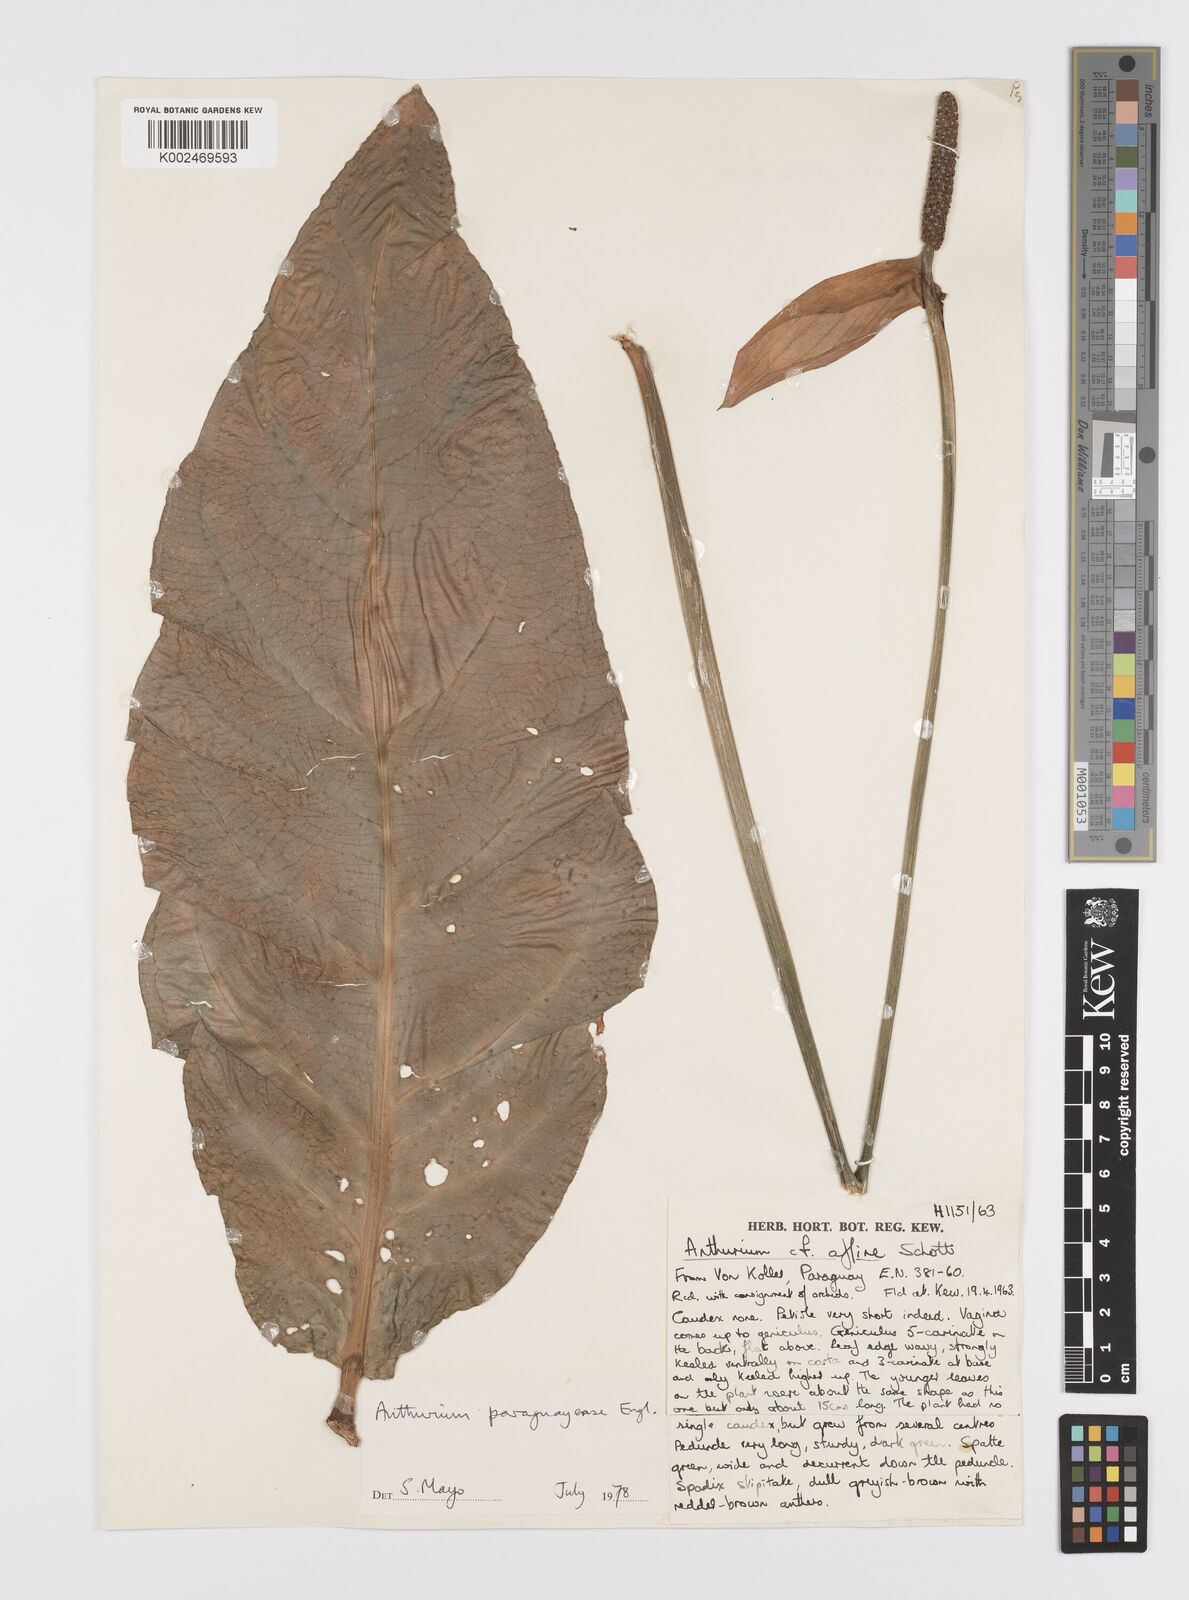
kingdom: Plantae
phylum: Tracheophyta
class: Liliopsida
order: Alismatales
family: Araceae
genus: Anthurium
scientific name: Anthurium paraguayense
